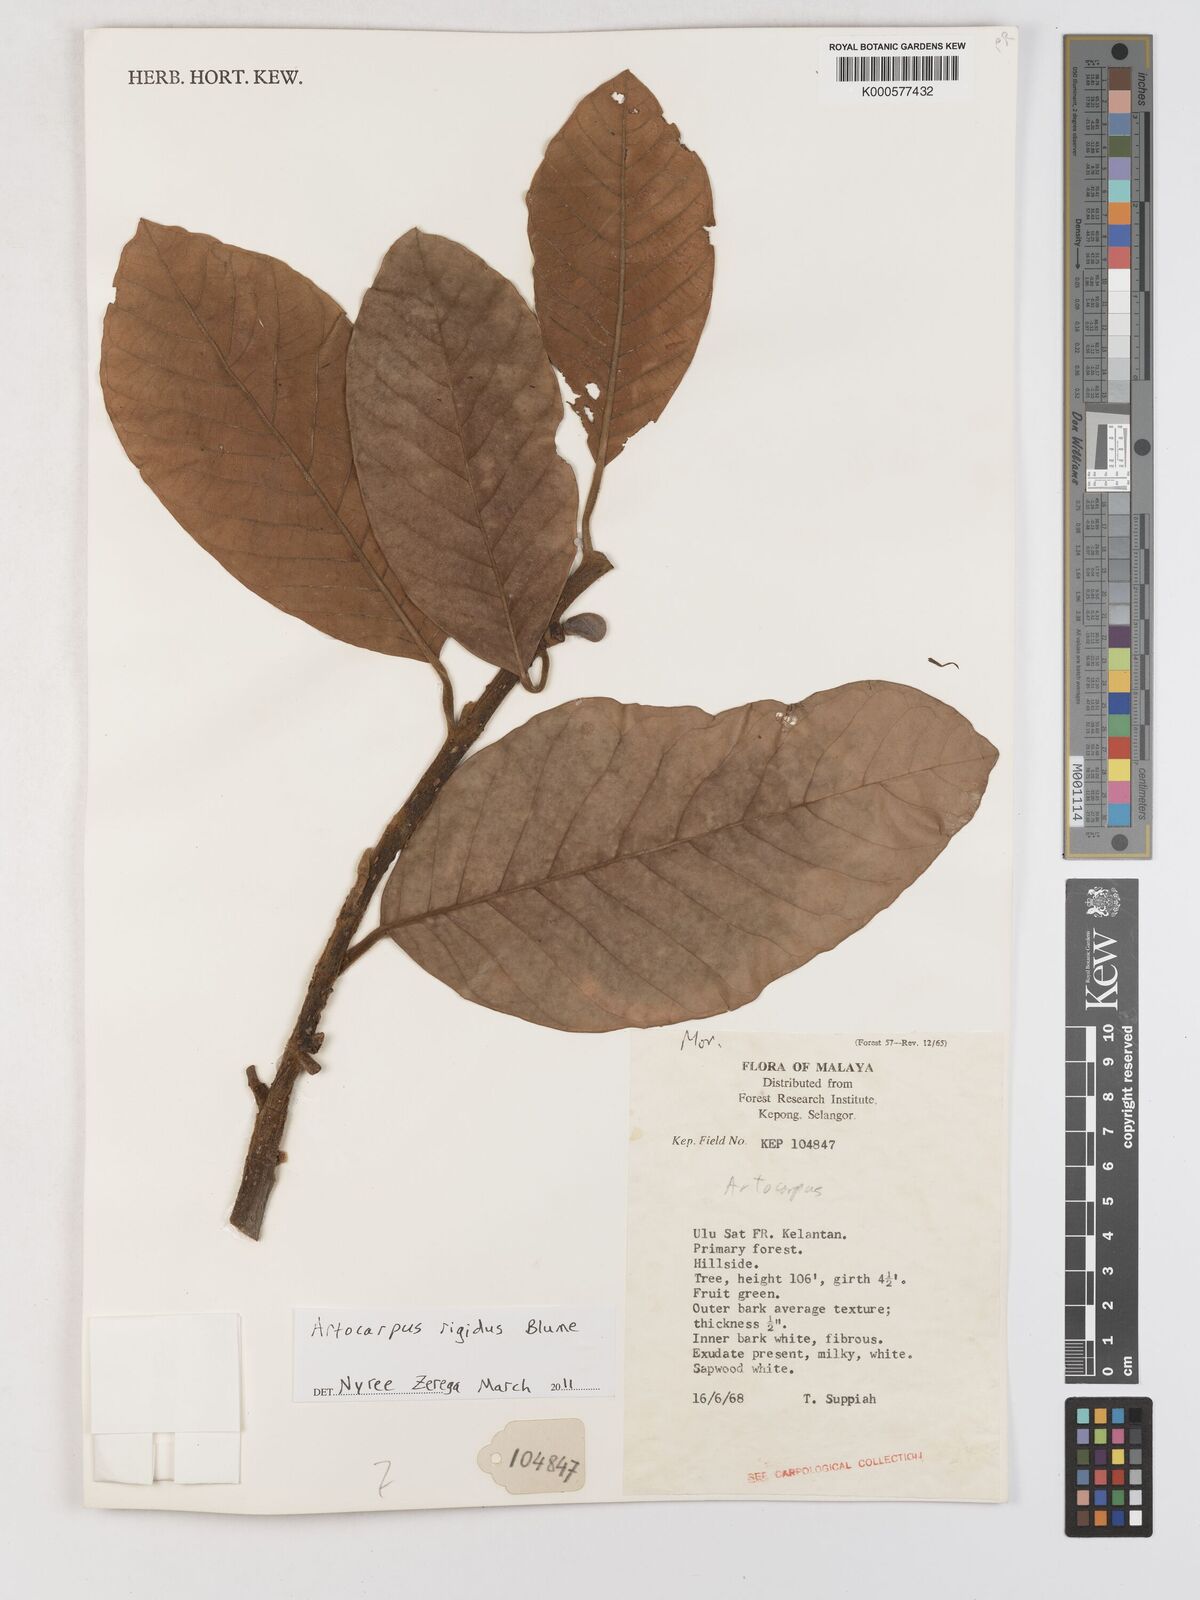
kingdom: Plantae
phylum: Tracheophyta
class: Magnoliopsida
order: Rosales
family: Moraceae
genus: Artocarpus
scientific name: Artocarpus rigidus
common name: Monkey-jack
